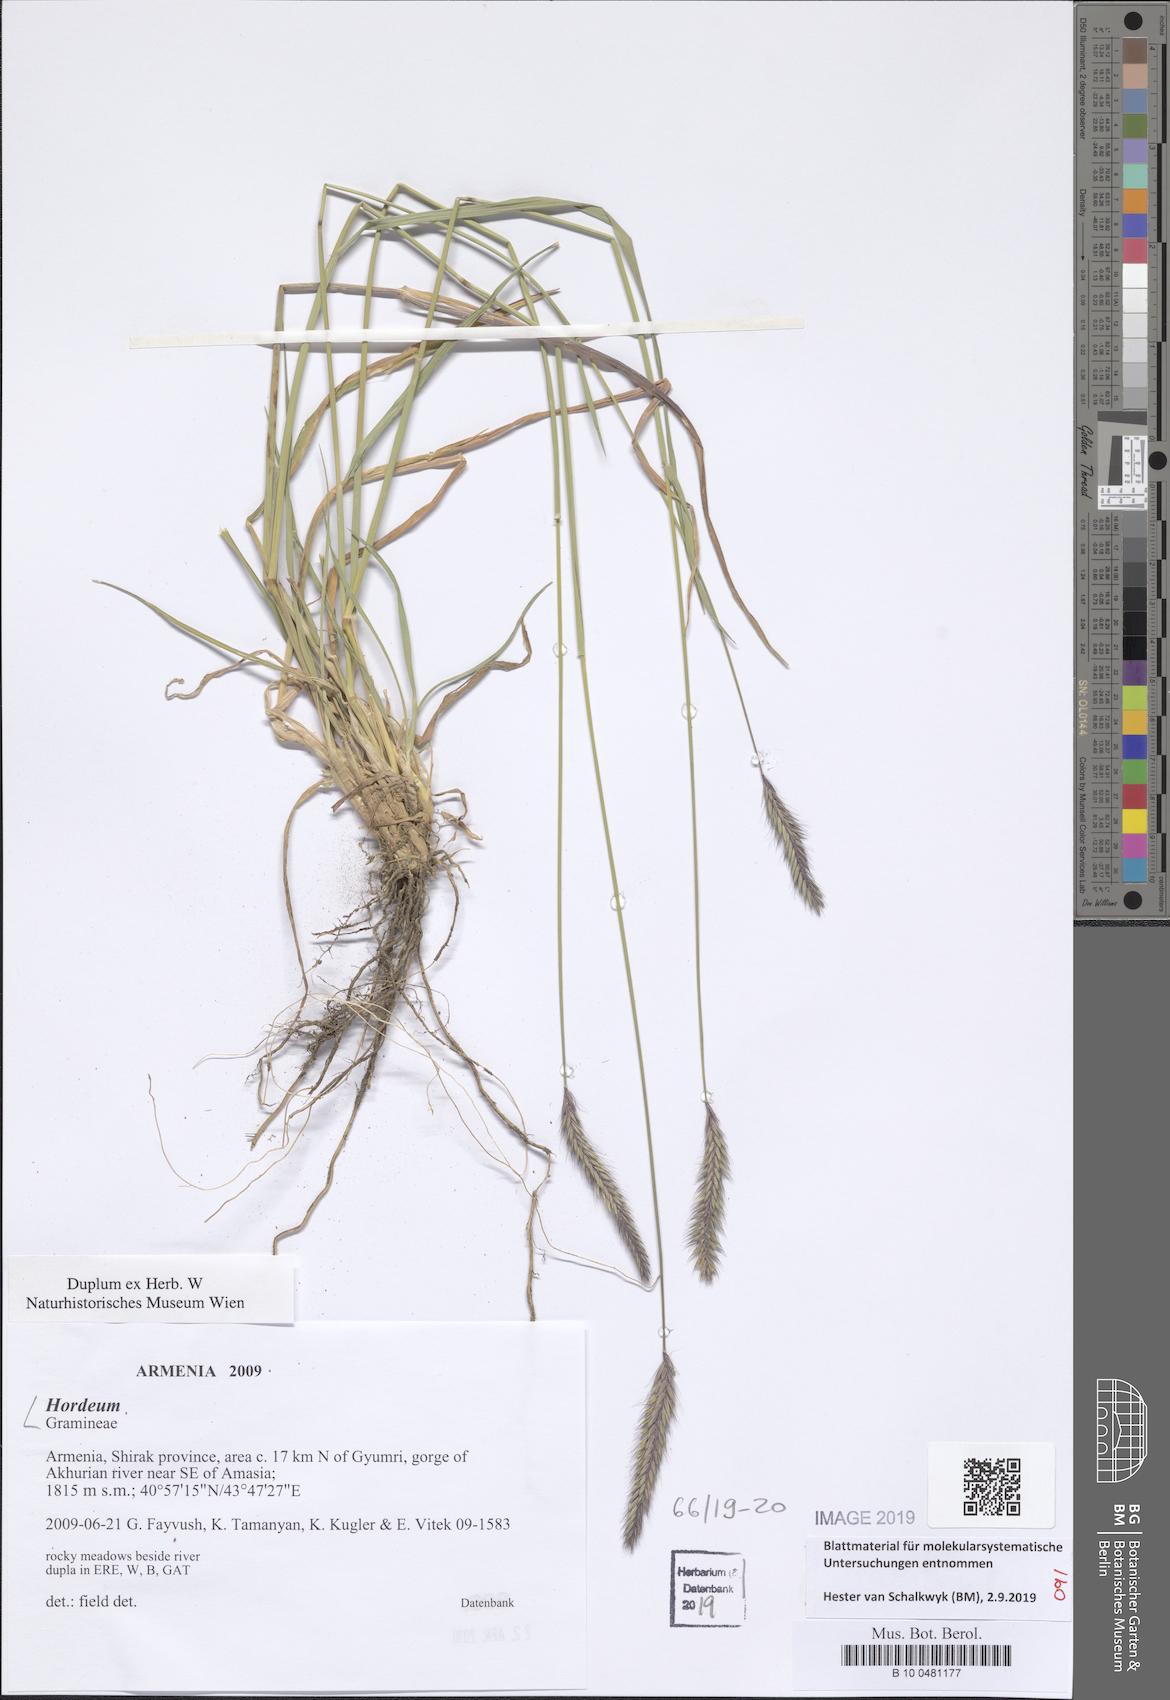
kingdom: Plantae
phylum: Tracheophyta
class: Liliopsida
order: Poales
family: Poaceae
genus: Hordeum
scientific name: Hordeum
